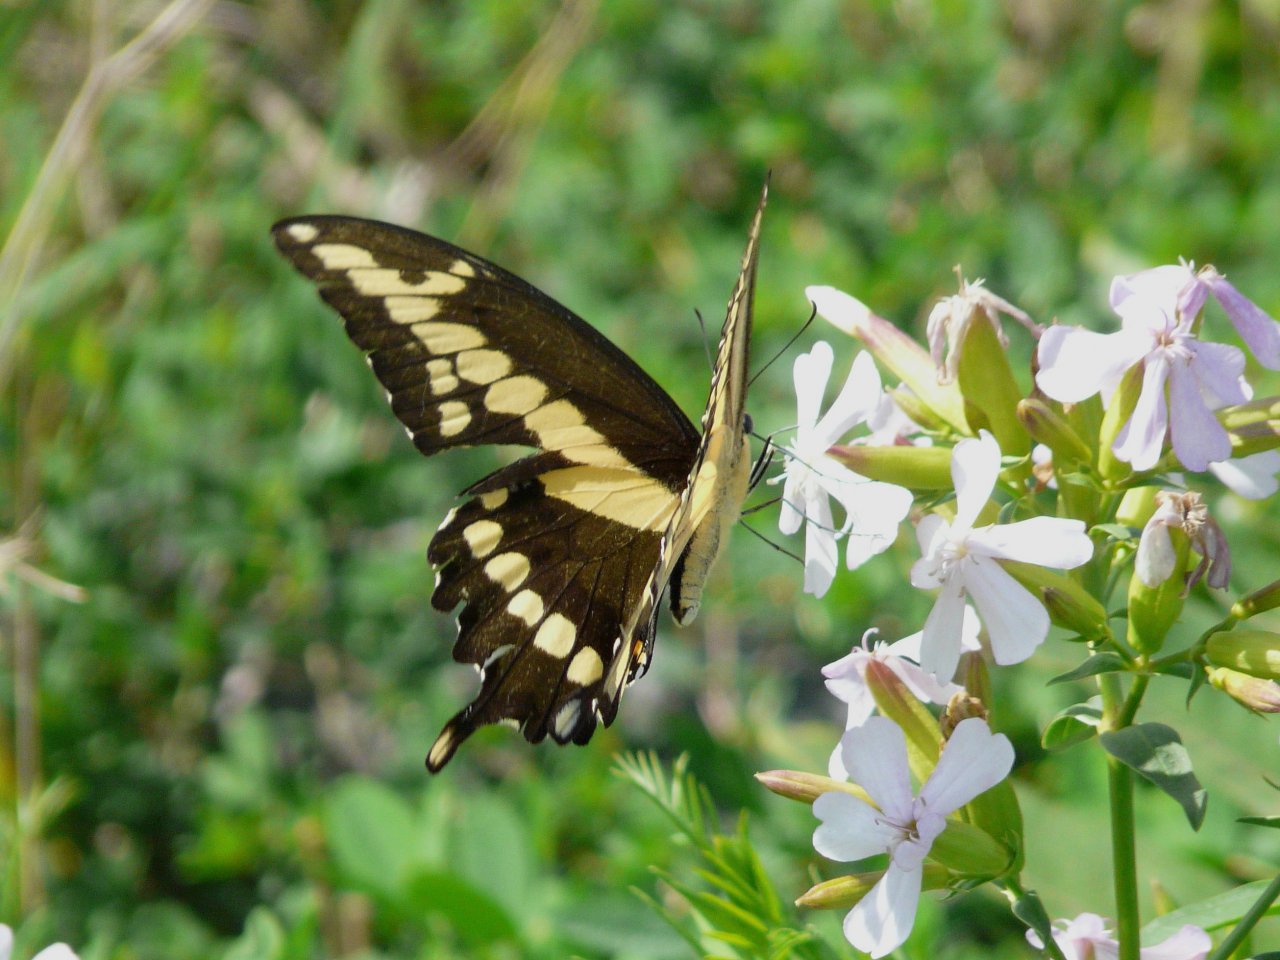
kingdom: Animalia
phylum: Arthropoda
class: Insecta
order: Lepidoptera
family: Papilionidae
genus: Papilio
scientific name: Papilio cresphontes
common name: Eastern Giant Swallowtail
